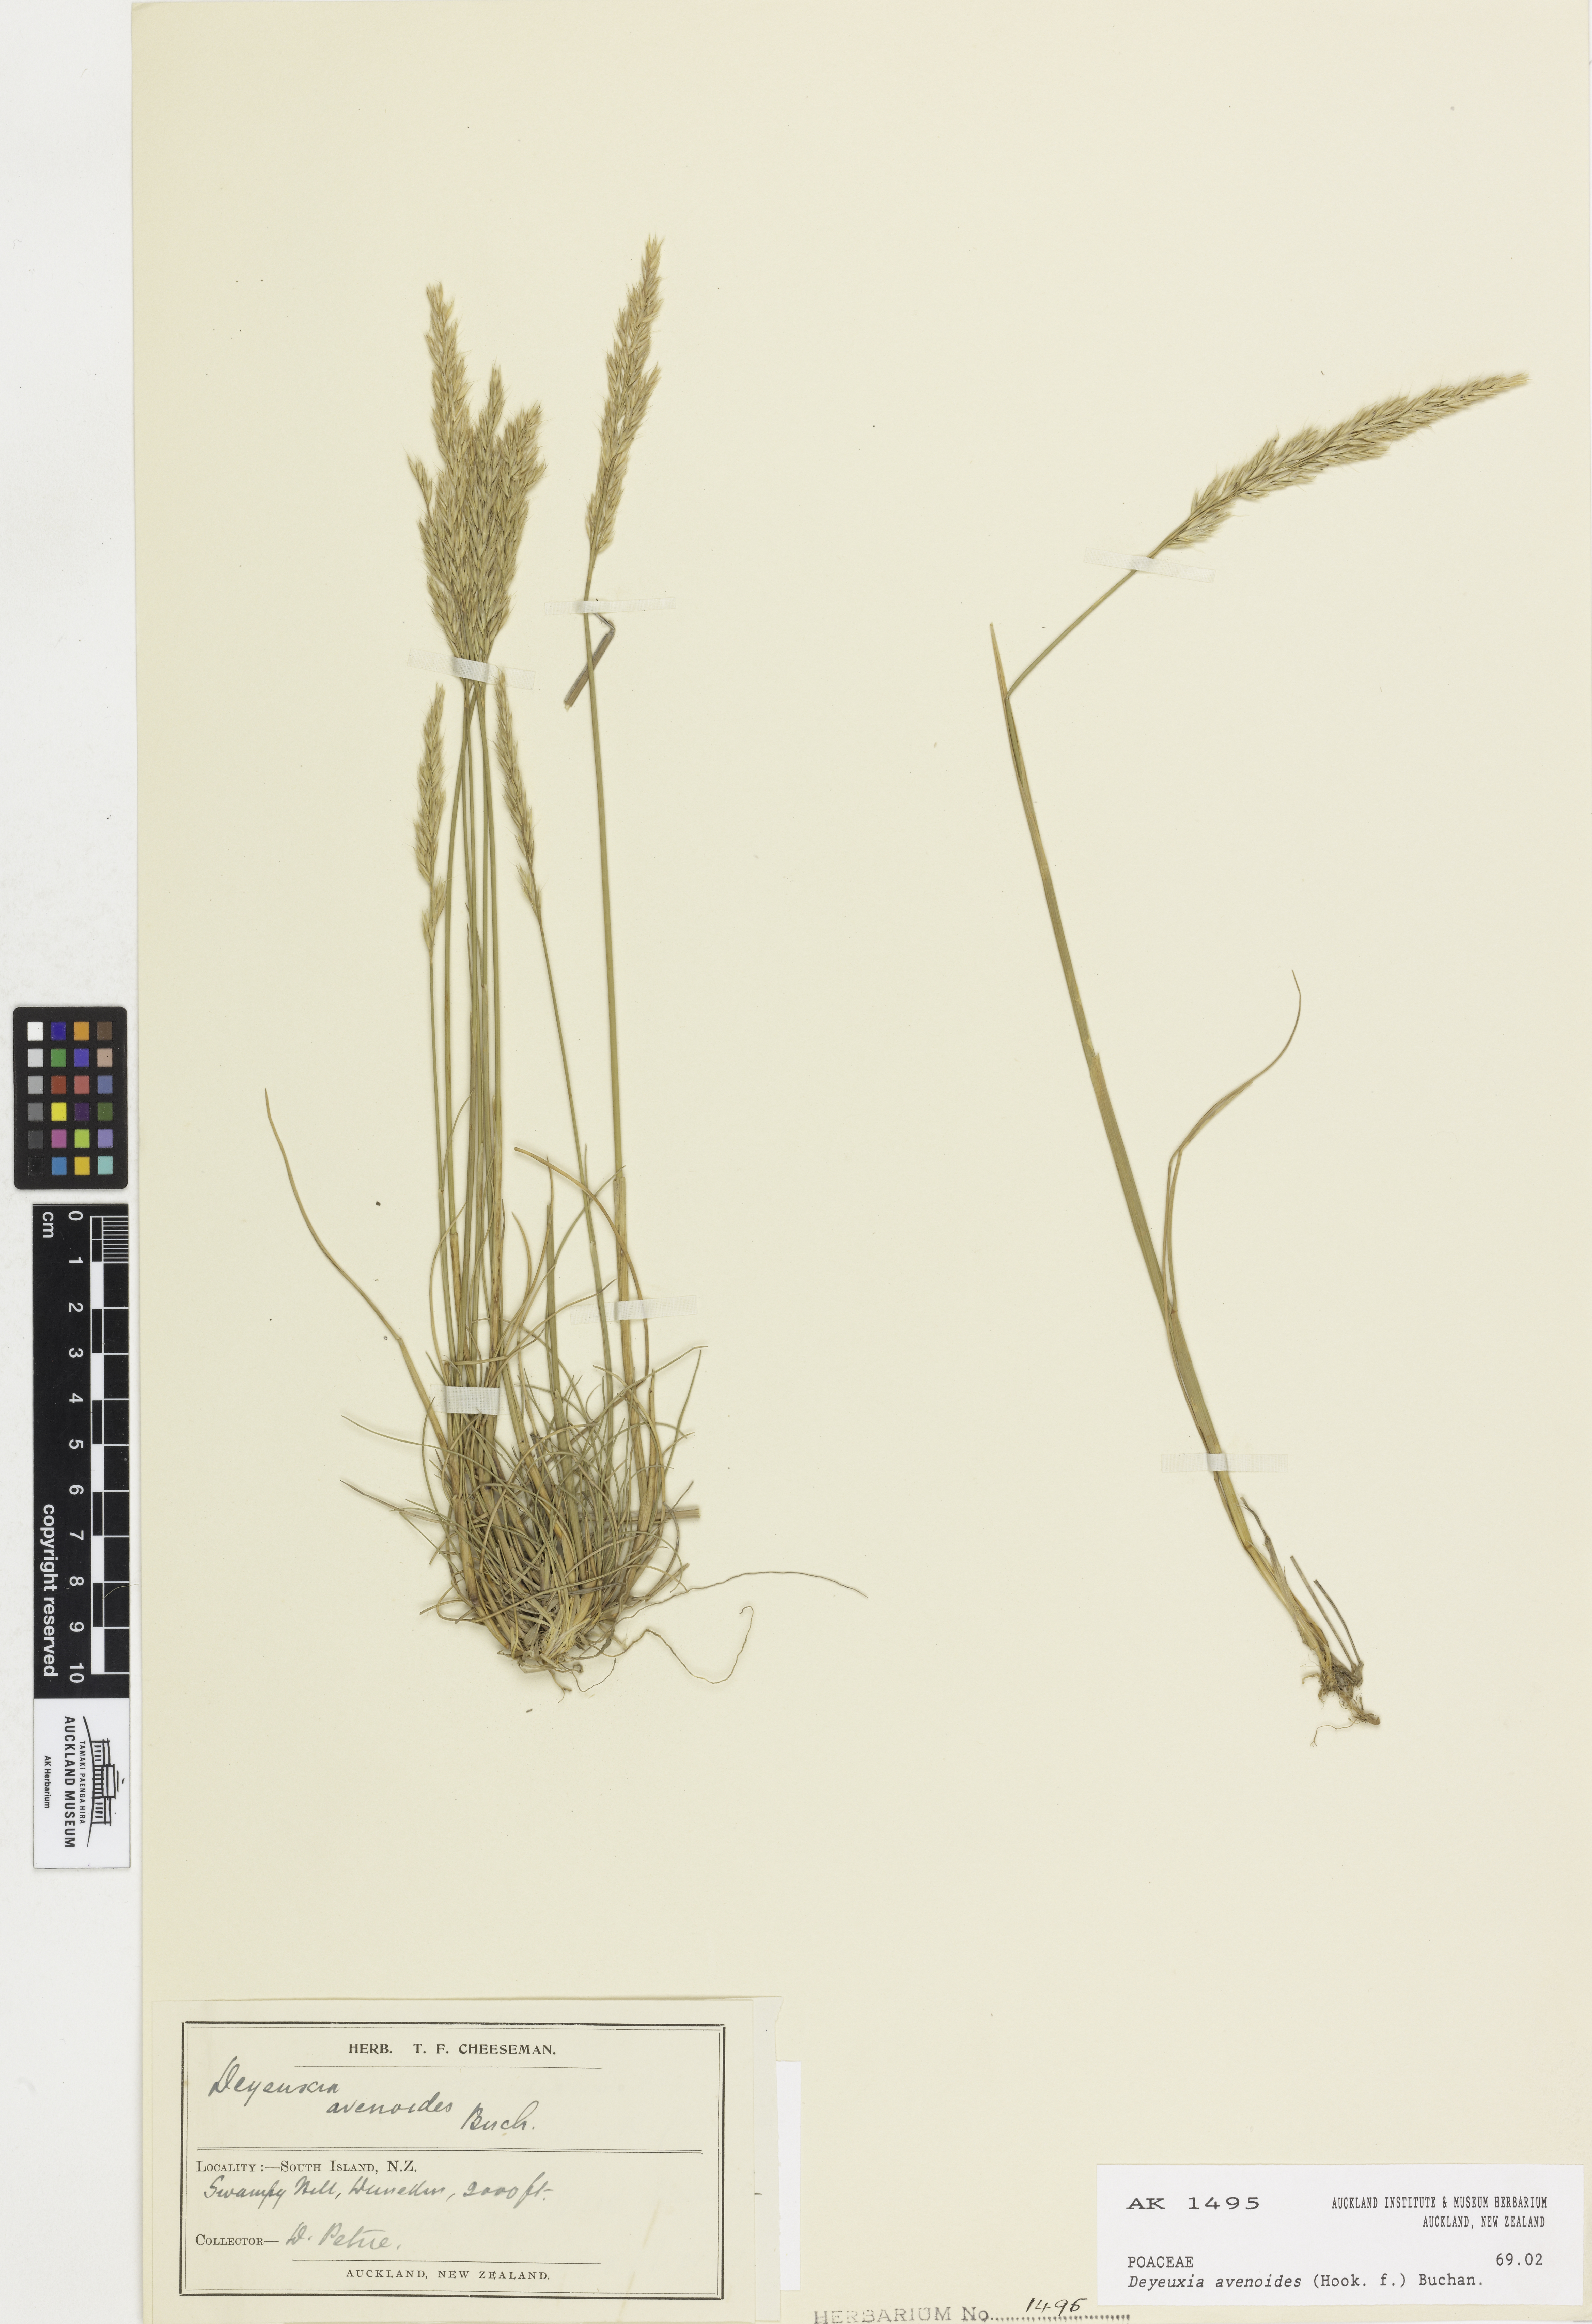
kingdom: Plantae
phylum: Tracheophyta
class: Liliopsida
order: Poales
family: Poaceae
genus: Calamagrostis
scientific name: Calamagrostis avenoides
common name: Mountain oat grass
